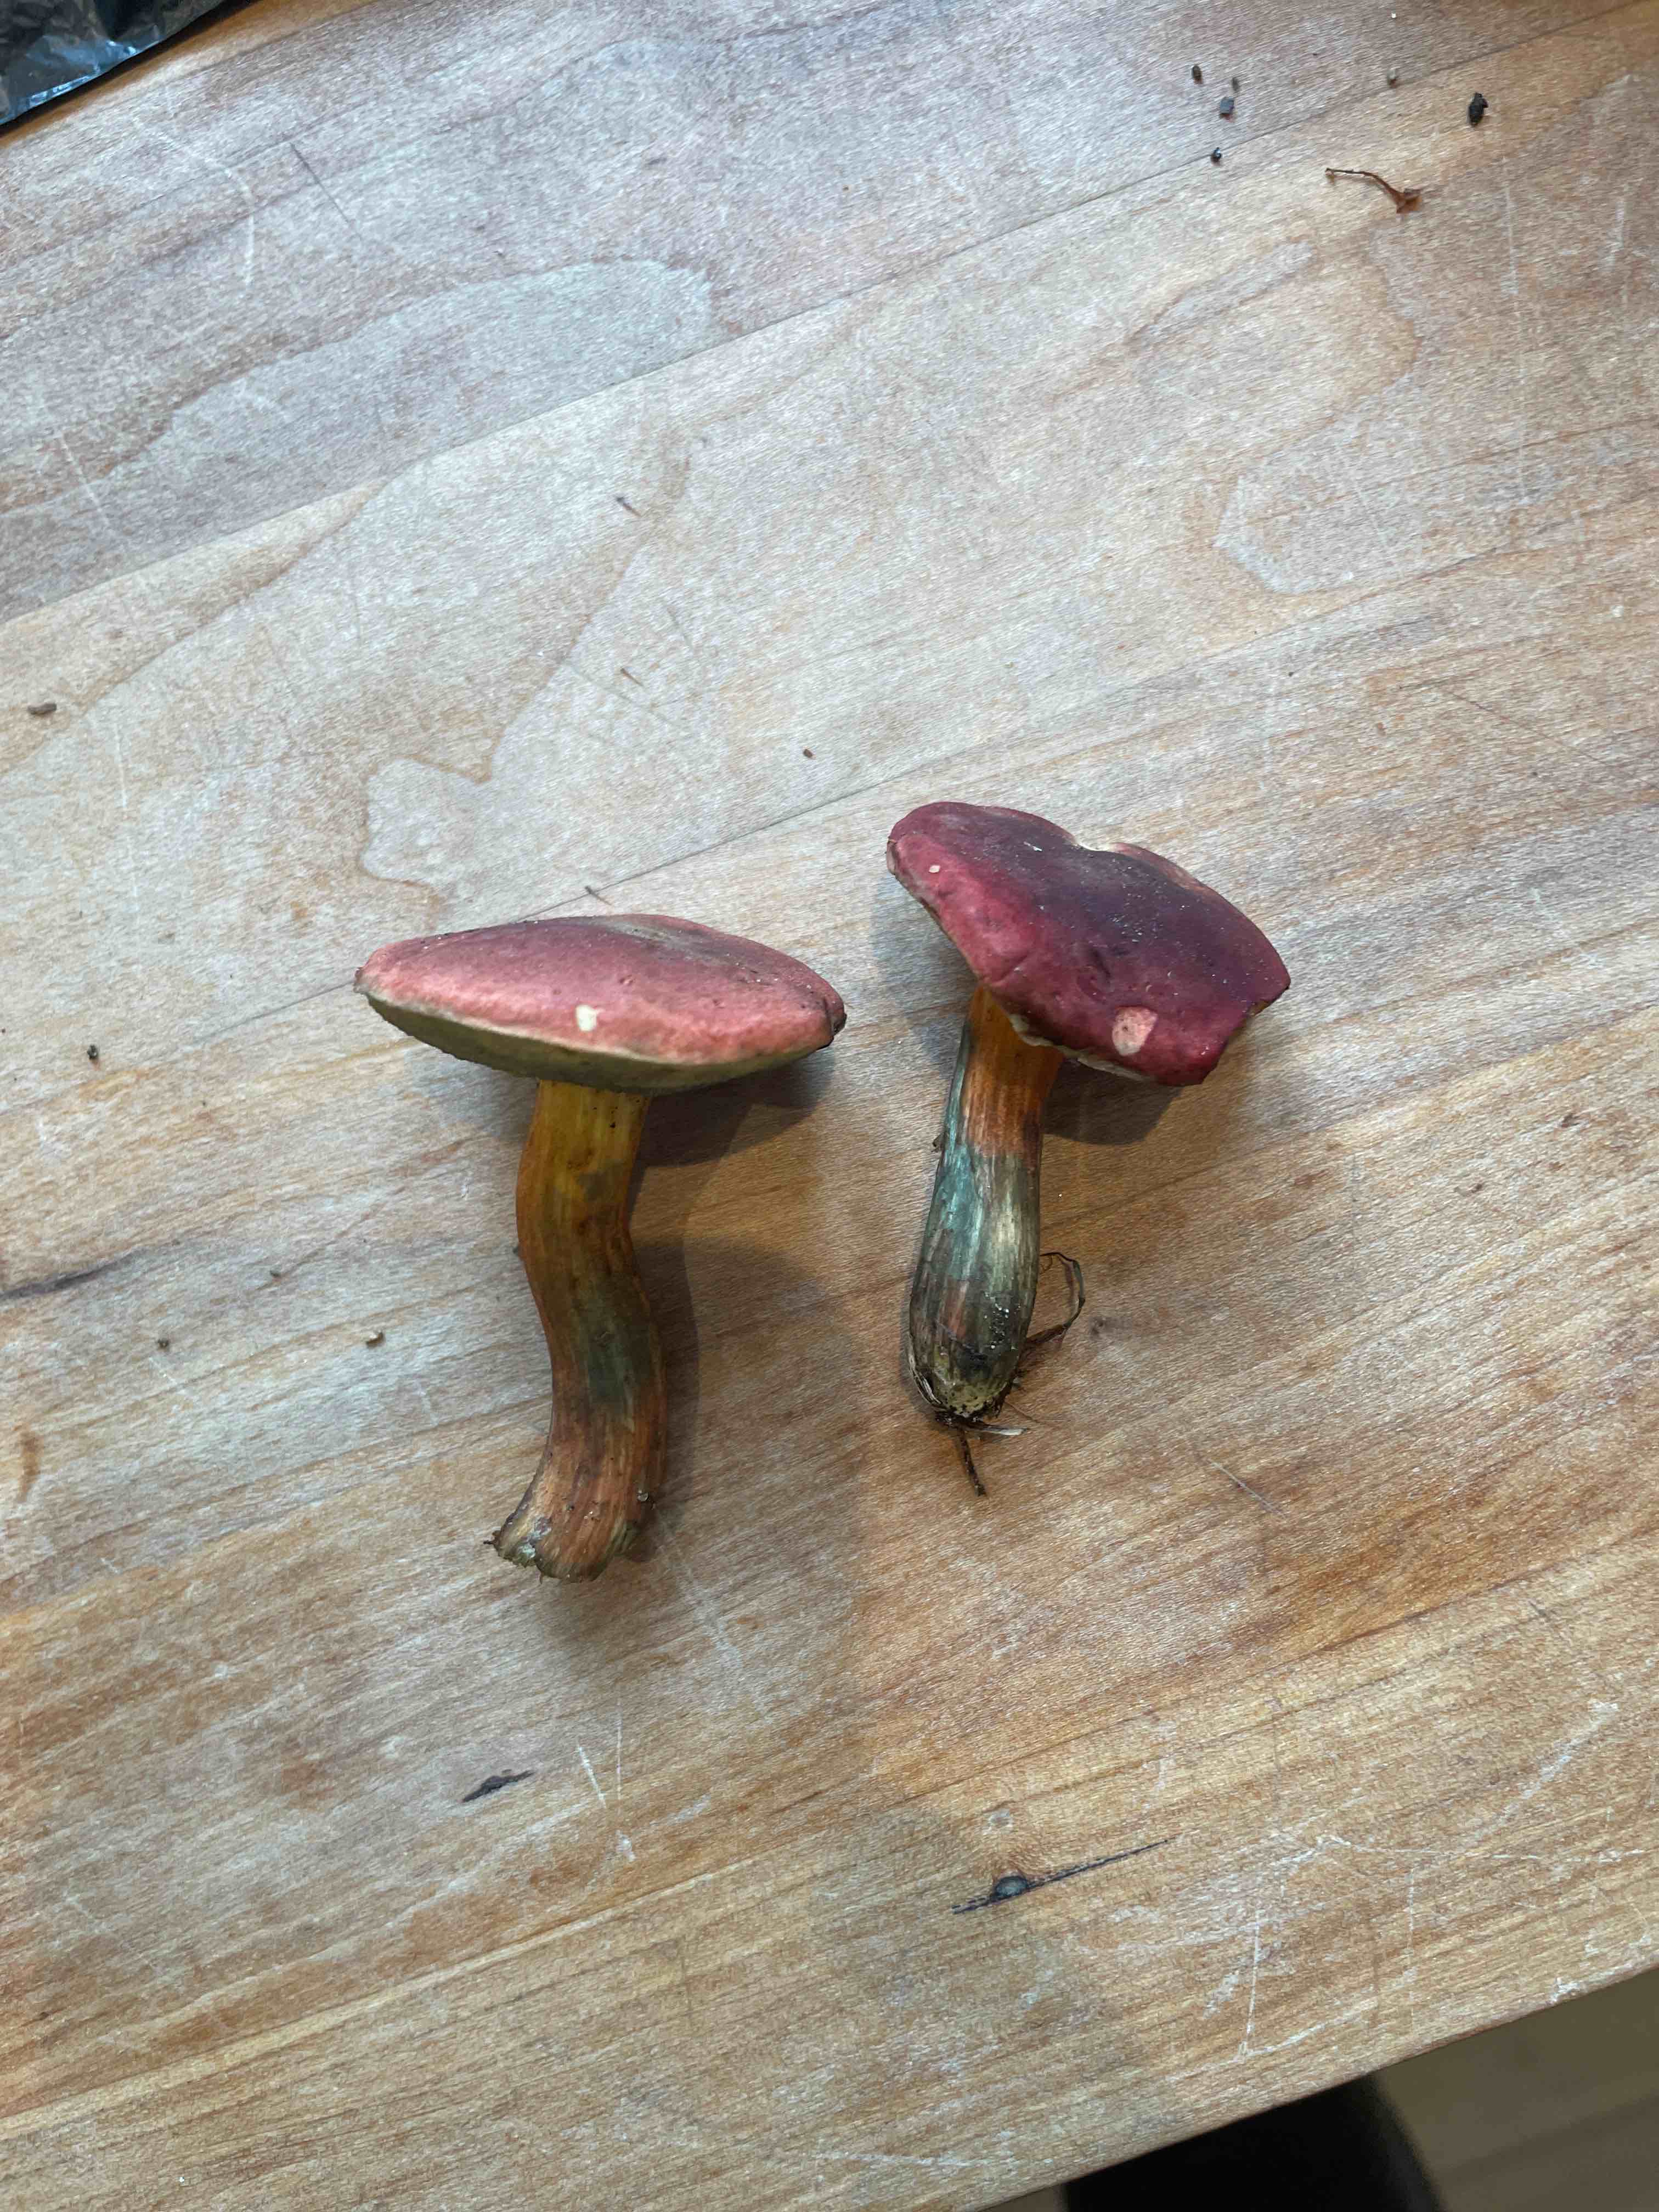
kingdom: Fungi
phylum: Basidiomycota
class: Agaricomycetes
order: Boletales
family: Boletaceae
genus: Hortiboletus
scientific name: Hortiboletus rubellus
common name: blodrød rørhat
